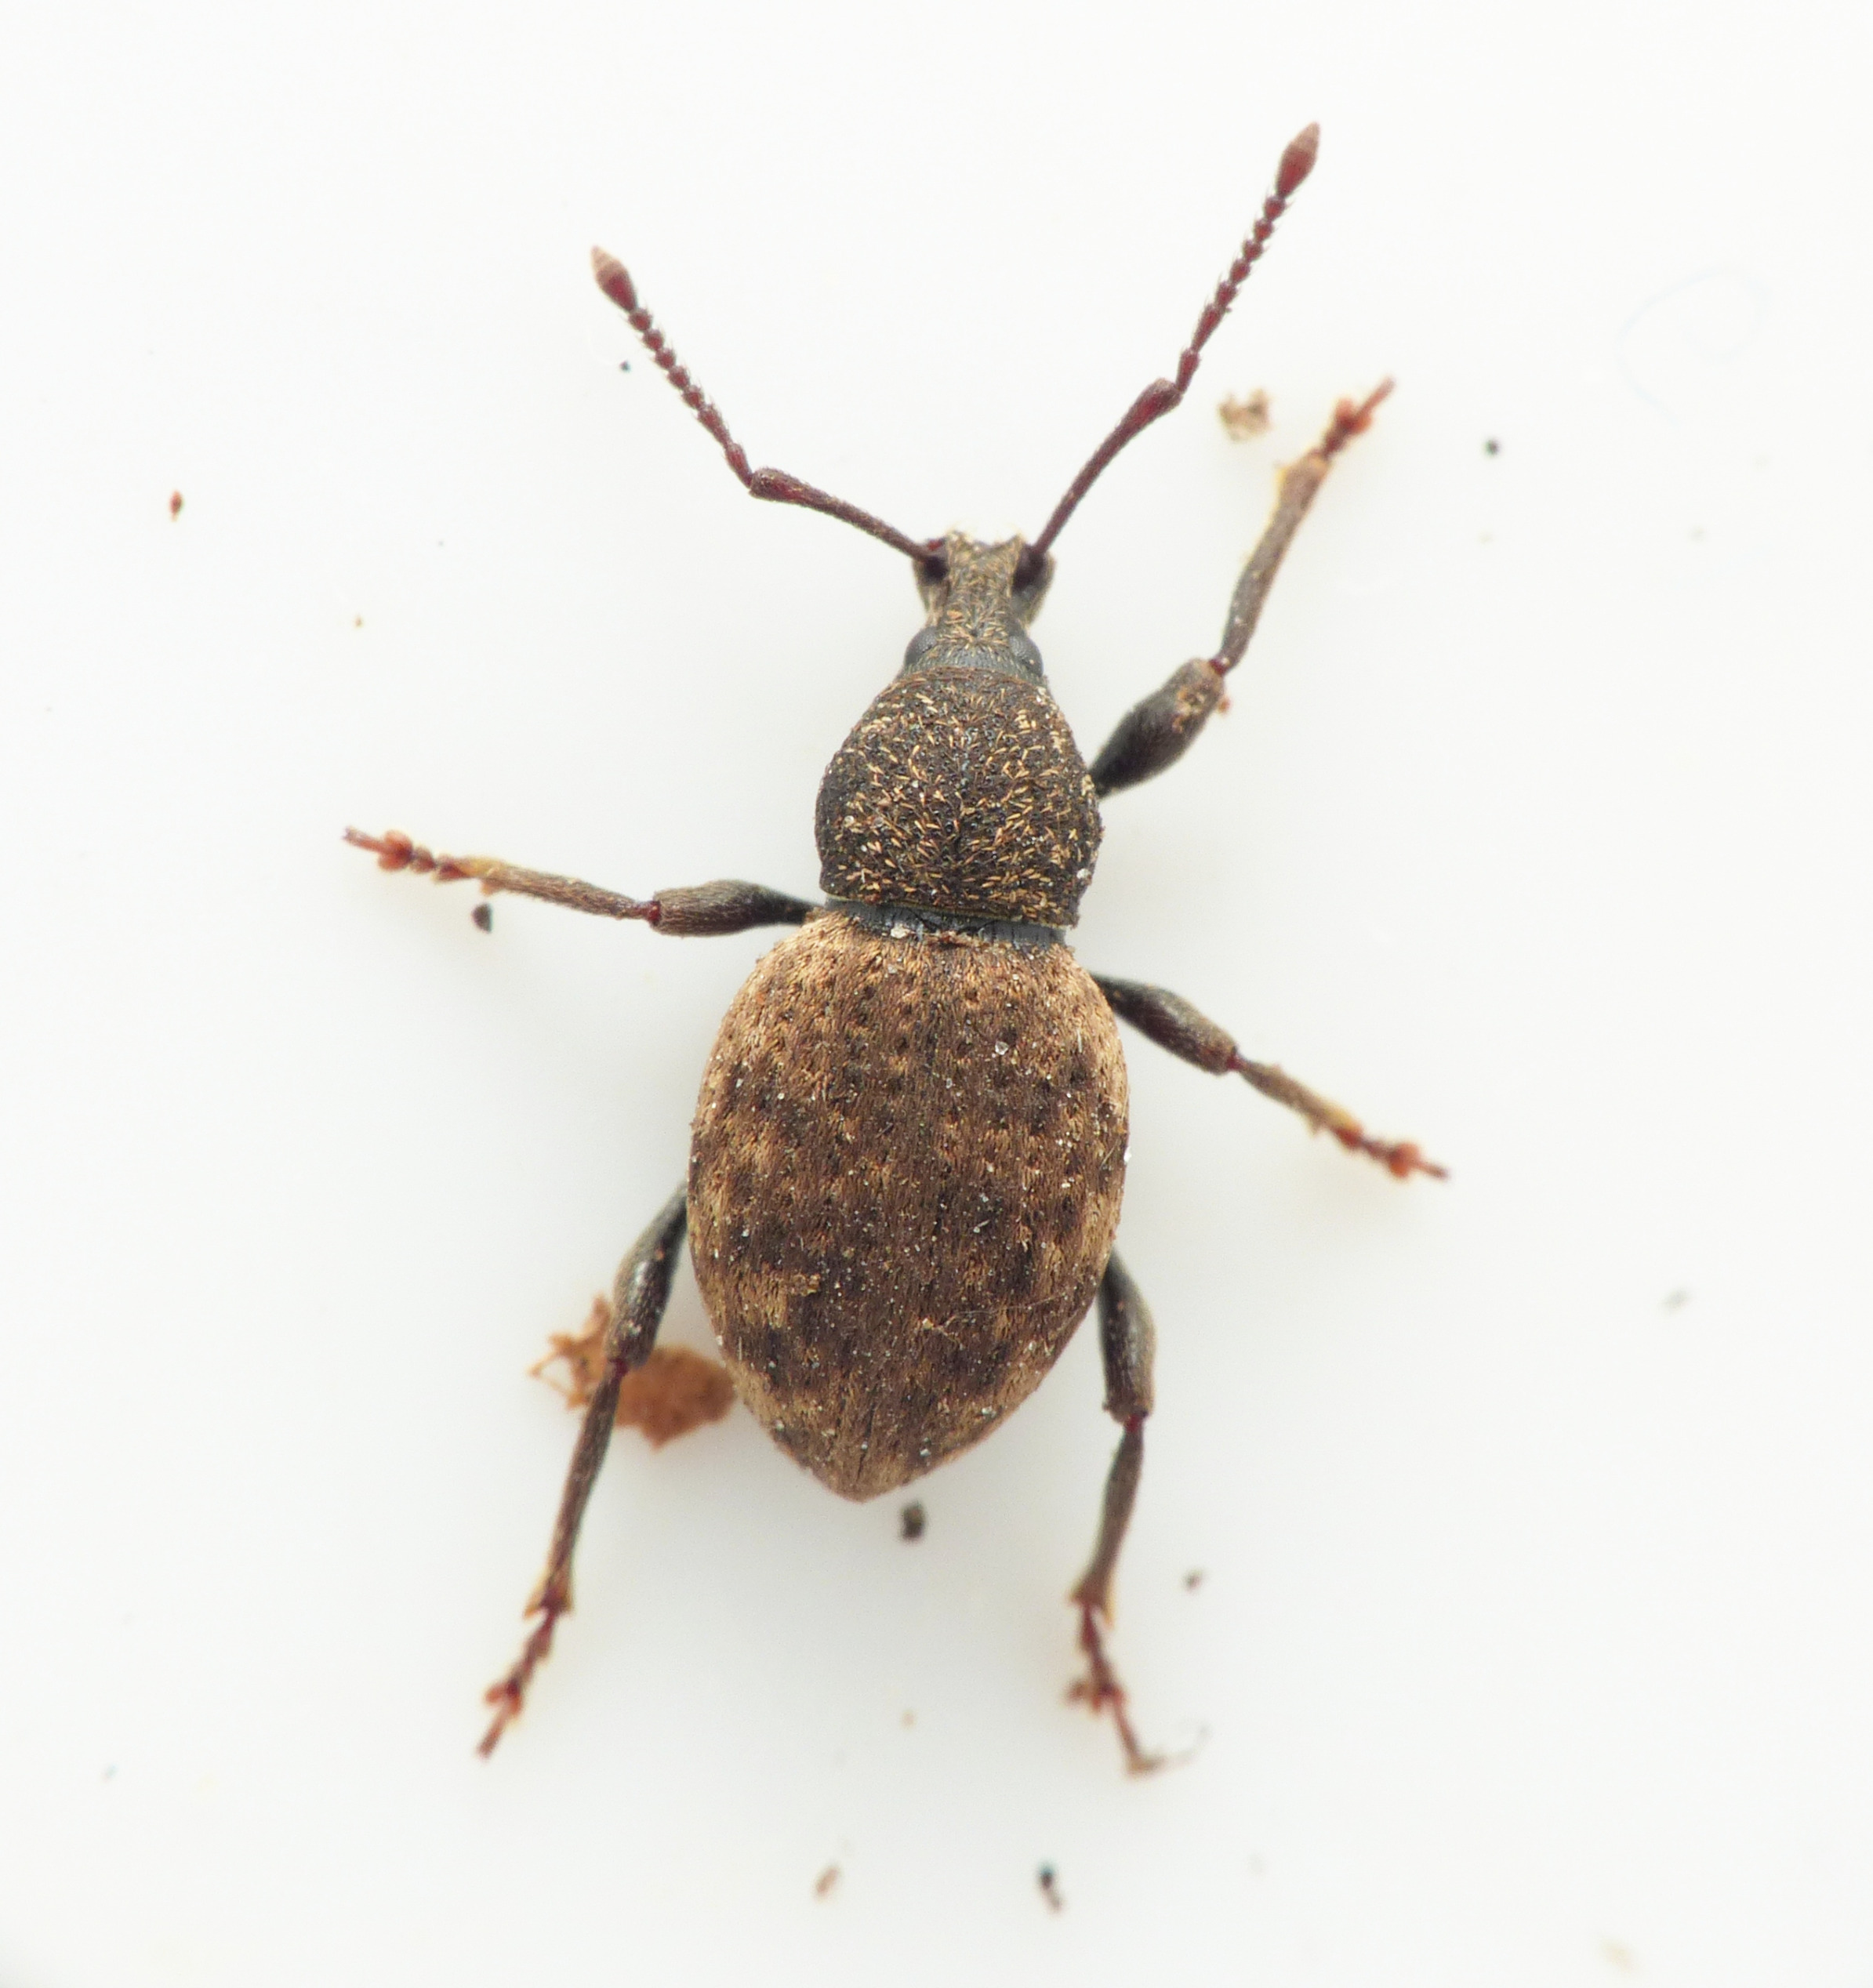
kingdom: Animalia
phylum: Arthropoda
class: Insecta
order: Coleoptera
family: Curculionidae
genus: Otiorhynchus
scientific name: Otiorhynchus raucus
